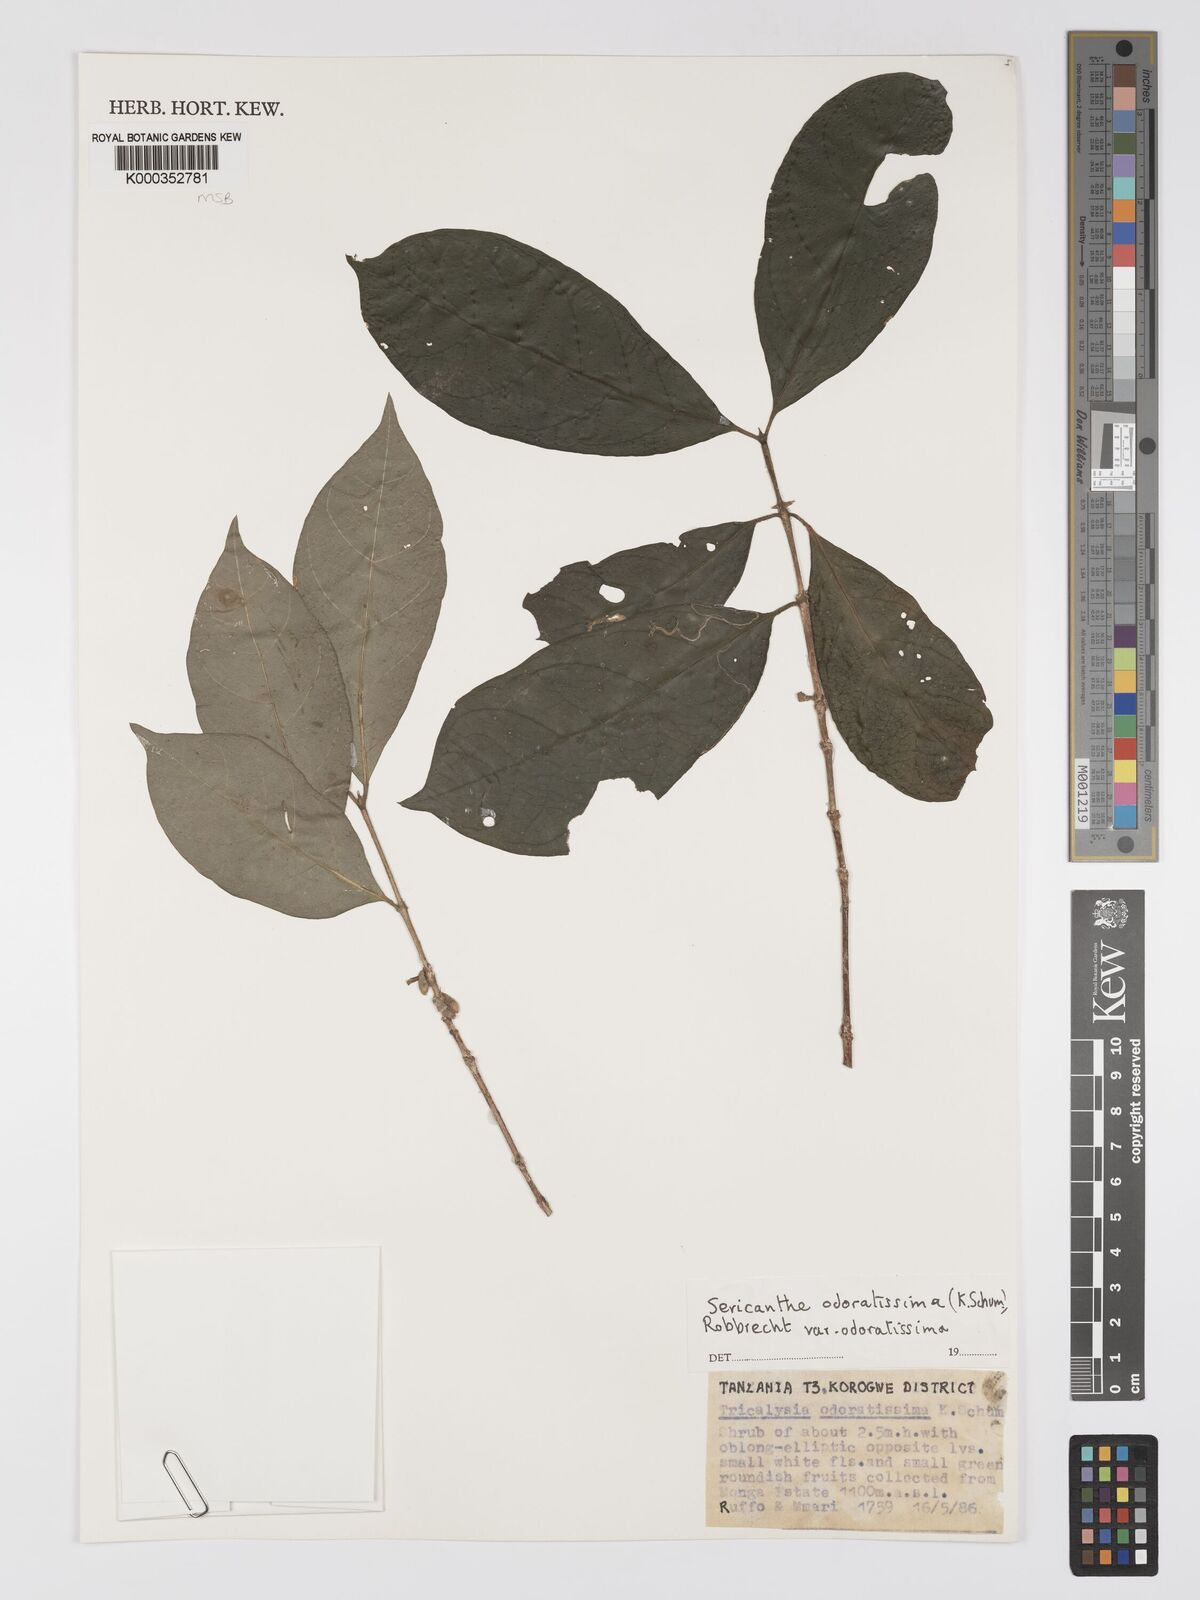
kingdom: Plantae
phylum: Tracheophyta
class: Magnoliopsida
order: Gentianales
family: Rubiaceae
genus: Sericanthe
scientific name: Sericanthe odoratissima
